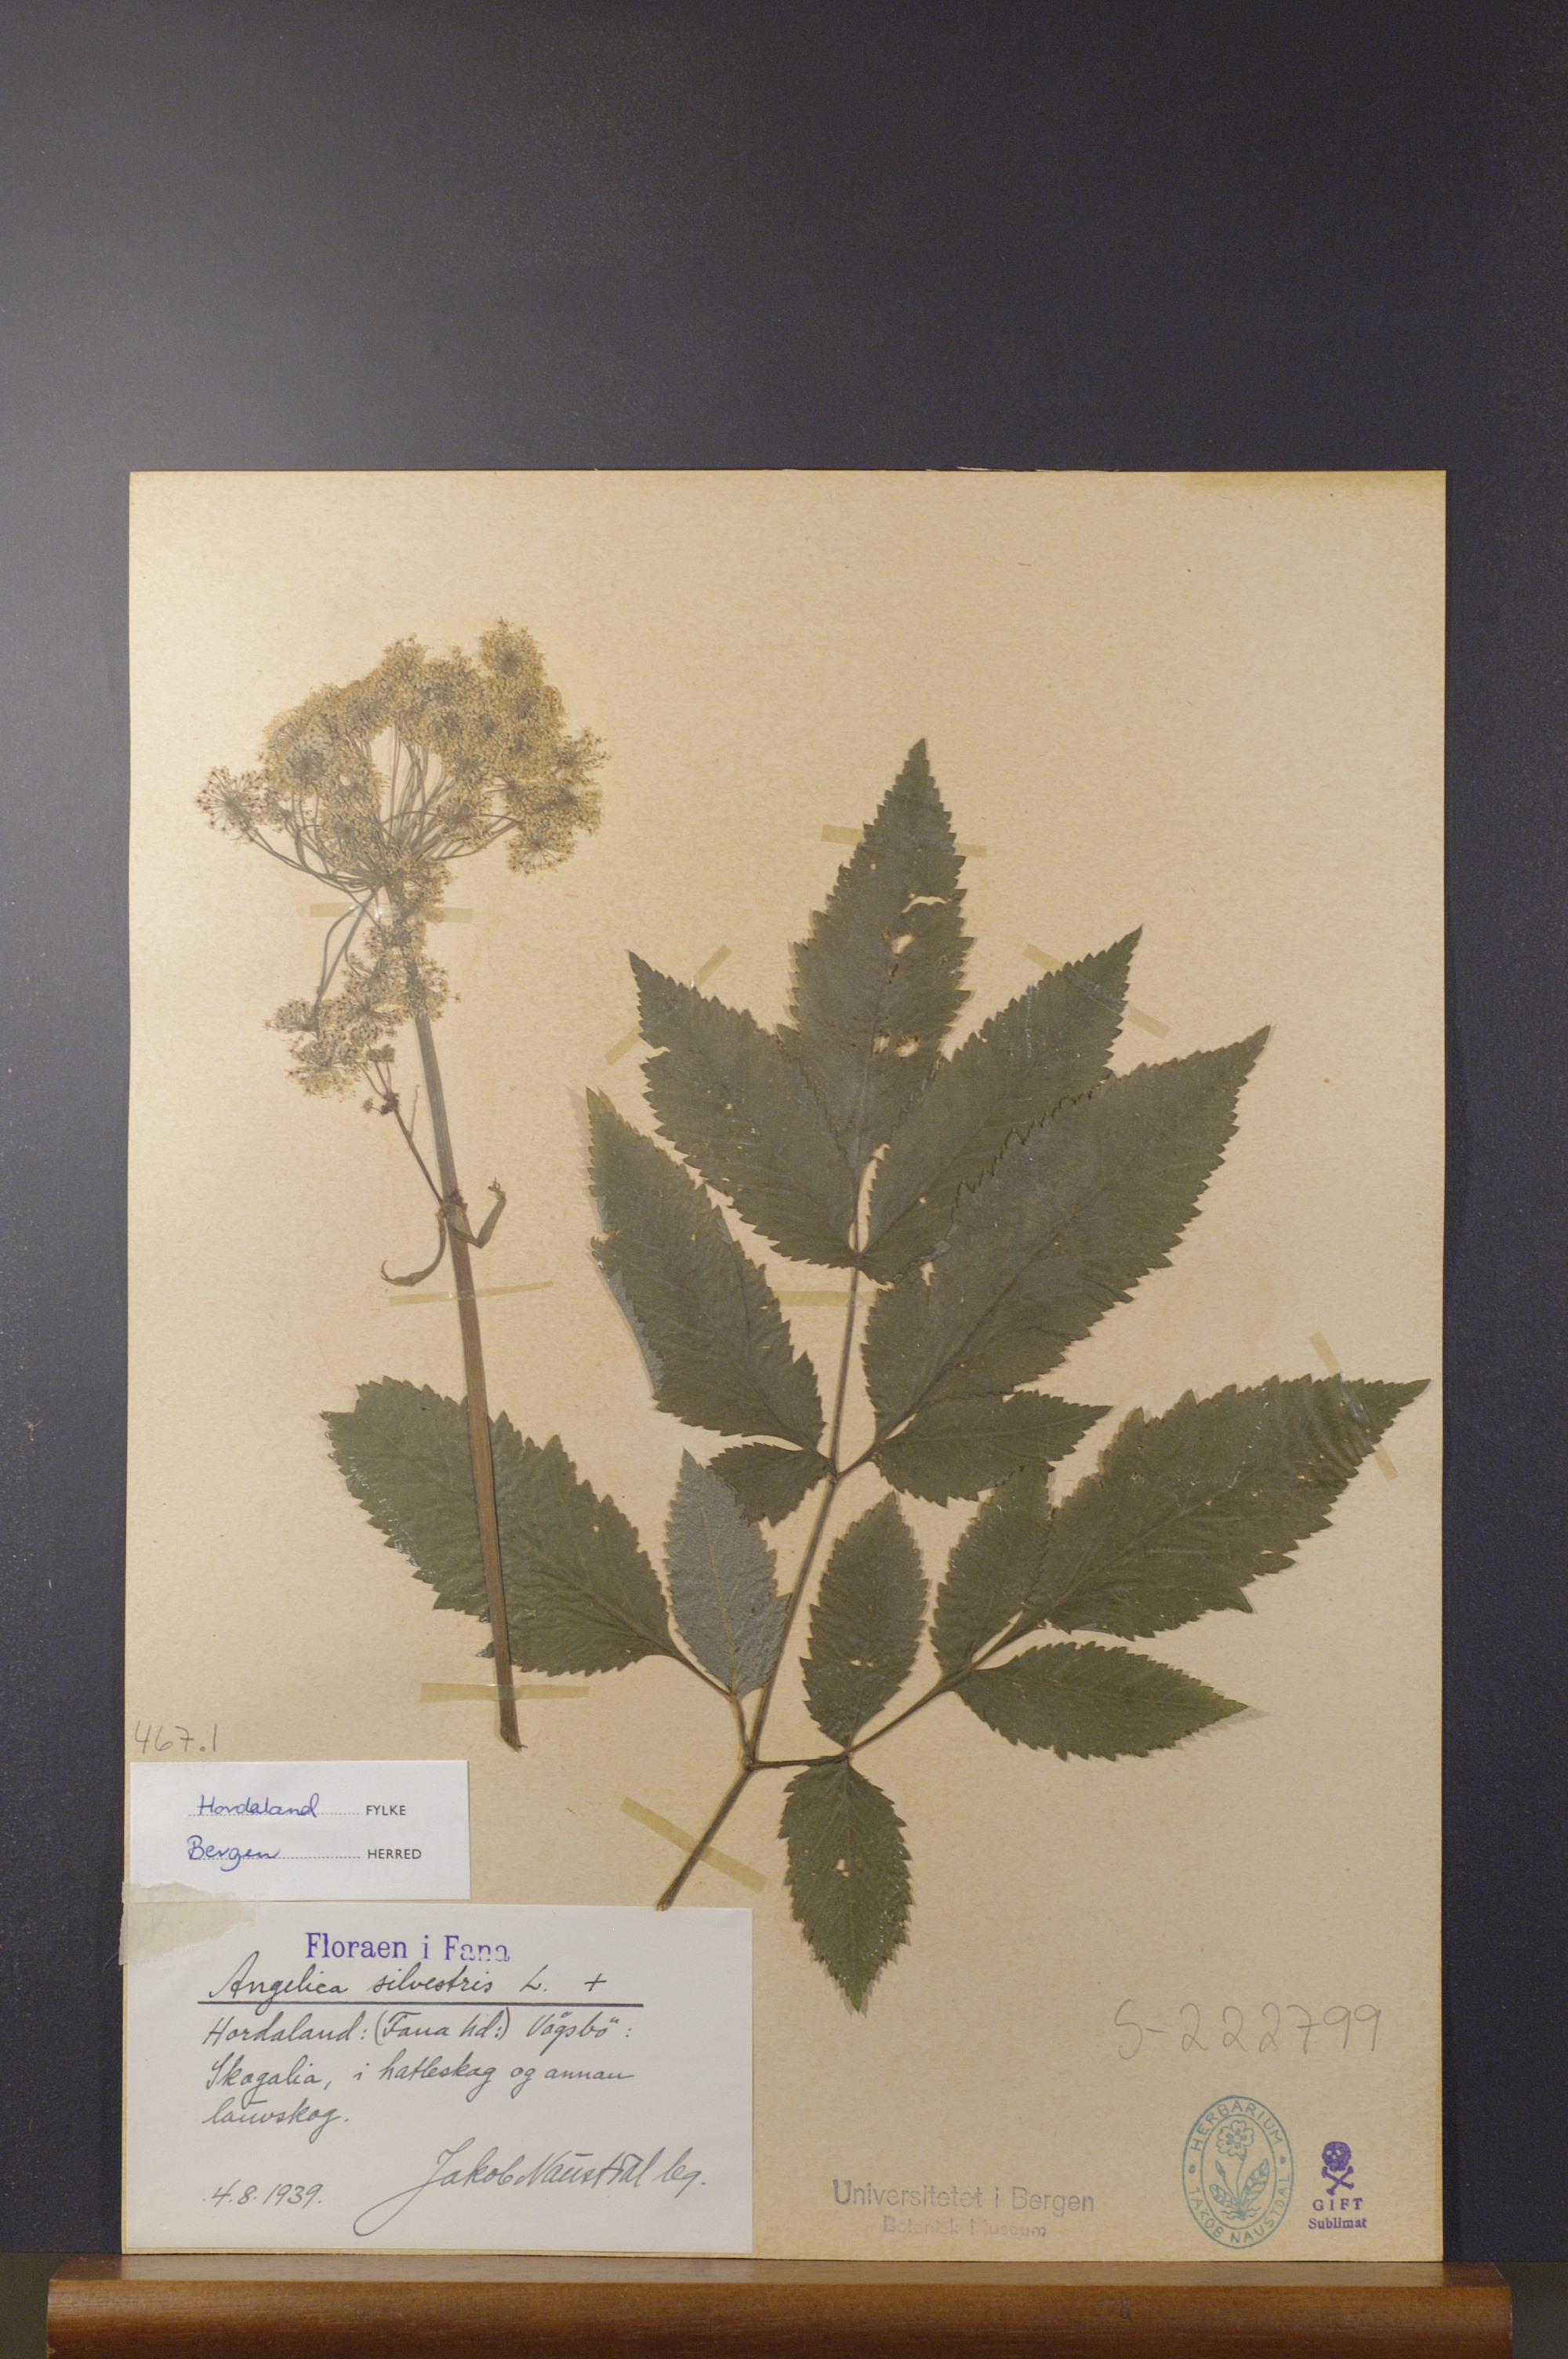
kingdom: Plantae
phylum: Tracheophyta
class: Magnoliopsida
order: Apiales
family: Apiaceae
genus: Angelica
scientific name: Angelica sylvestris
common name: Wild angelica
